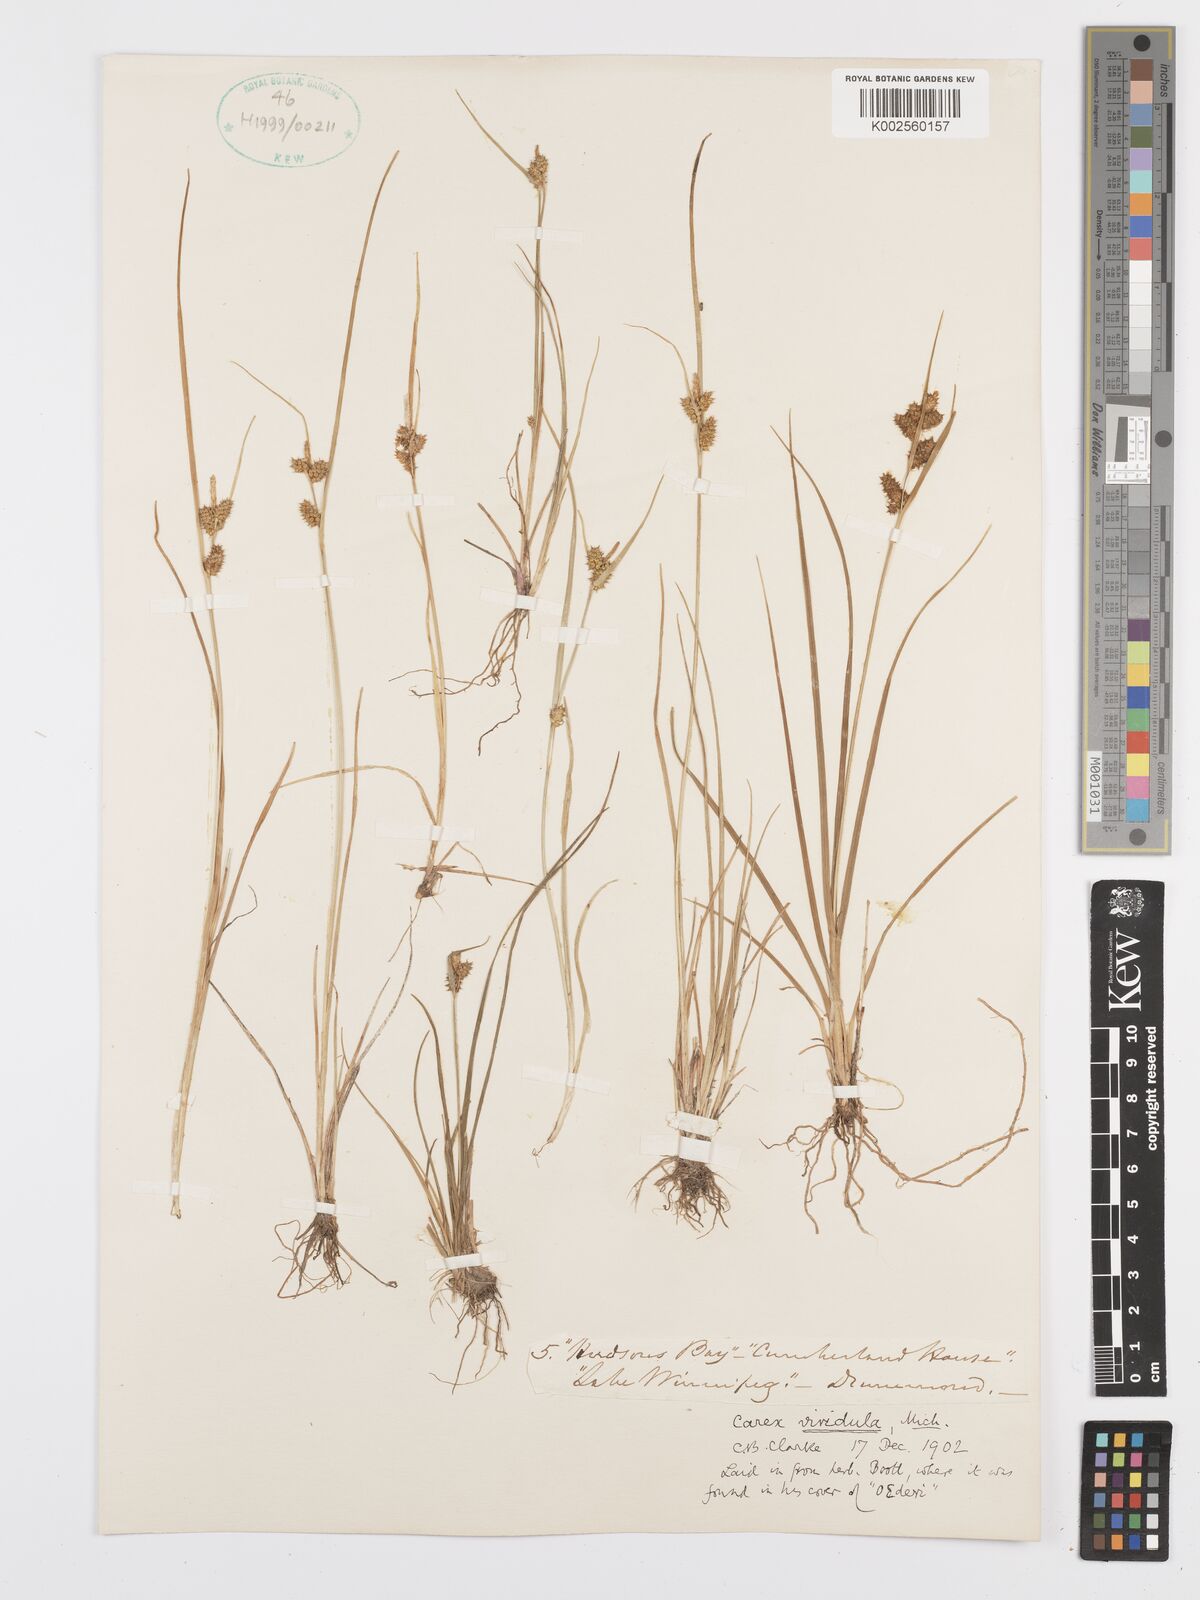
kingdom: Plantae
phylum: Tracheophyta
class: Liliopsida
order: Poales
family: Cyperaceae
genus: Carex
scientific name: Carex oederi
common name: Common & small-fruited yellow-sedge
